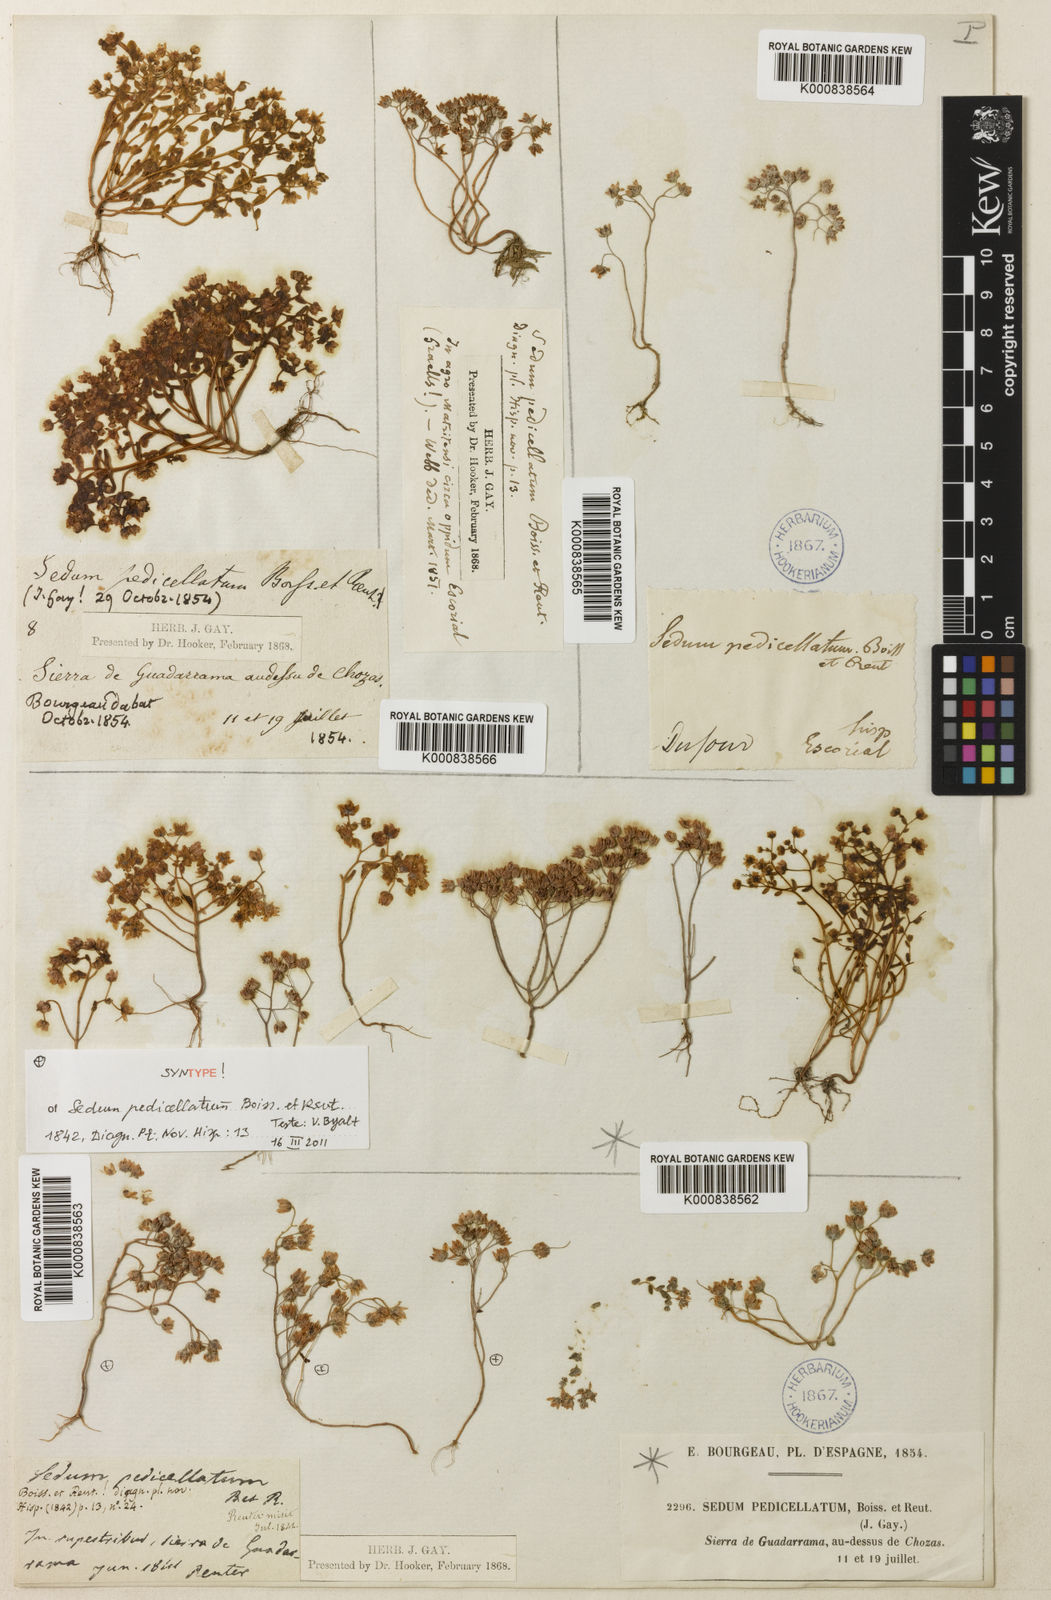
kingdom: Plantae
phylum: Tracheophyta
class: Magnoliopsida
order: Saxifragales
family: Crassulaceae
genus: Sedum
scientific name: Sedum pedicellatum
